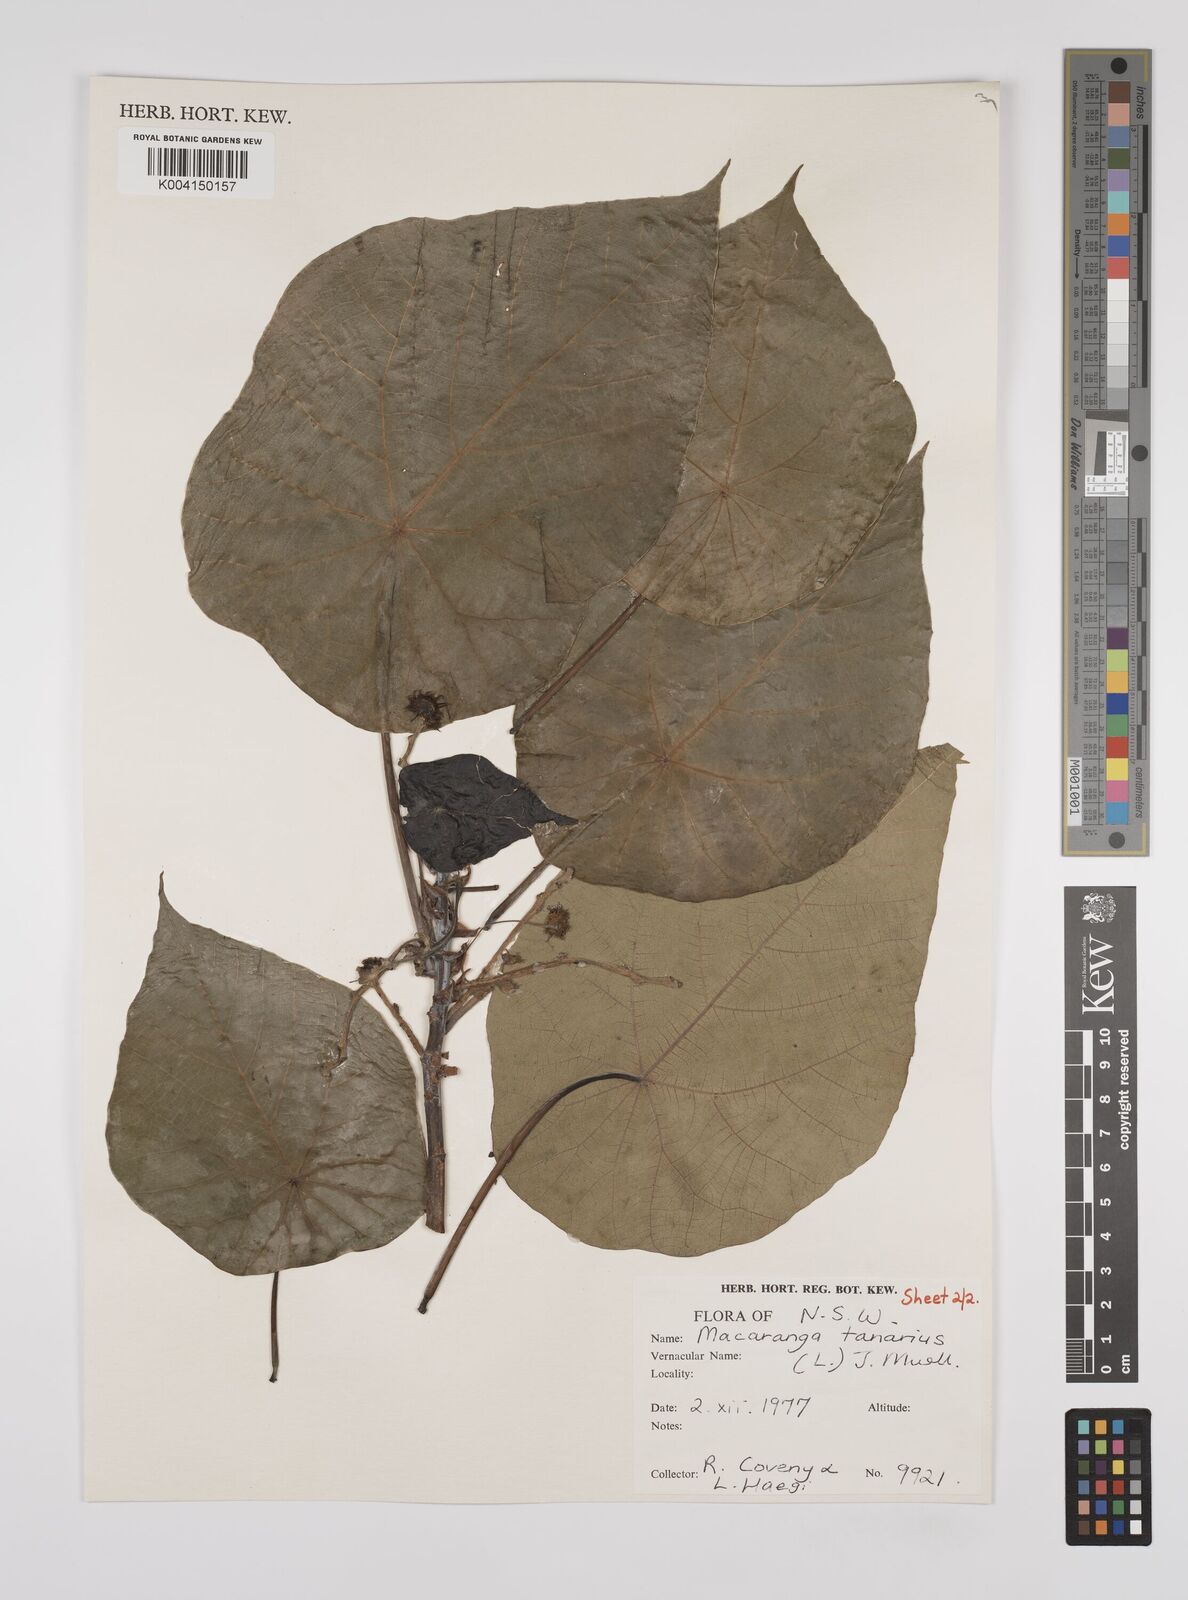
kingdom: Plantae
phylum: Tracheophyta
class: Magnoliopsida
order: Malpighiales
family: Euphorbiaceae
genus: Macaranga
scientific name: Macaranga tanarius
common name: Parasol leaf tree
